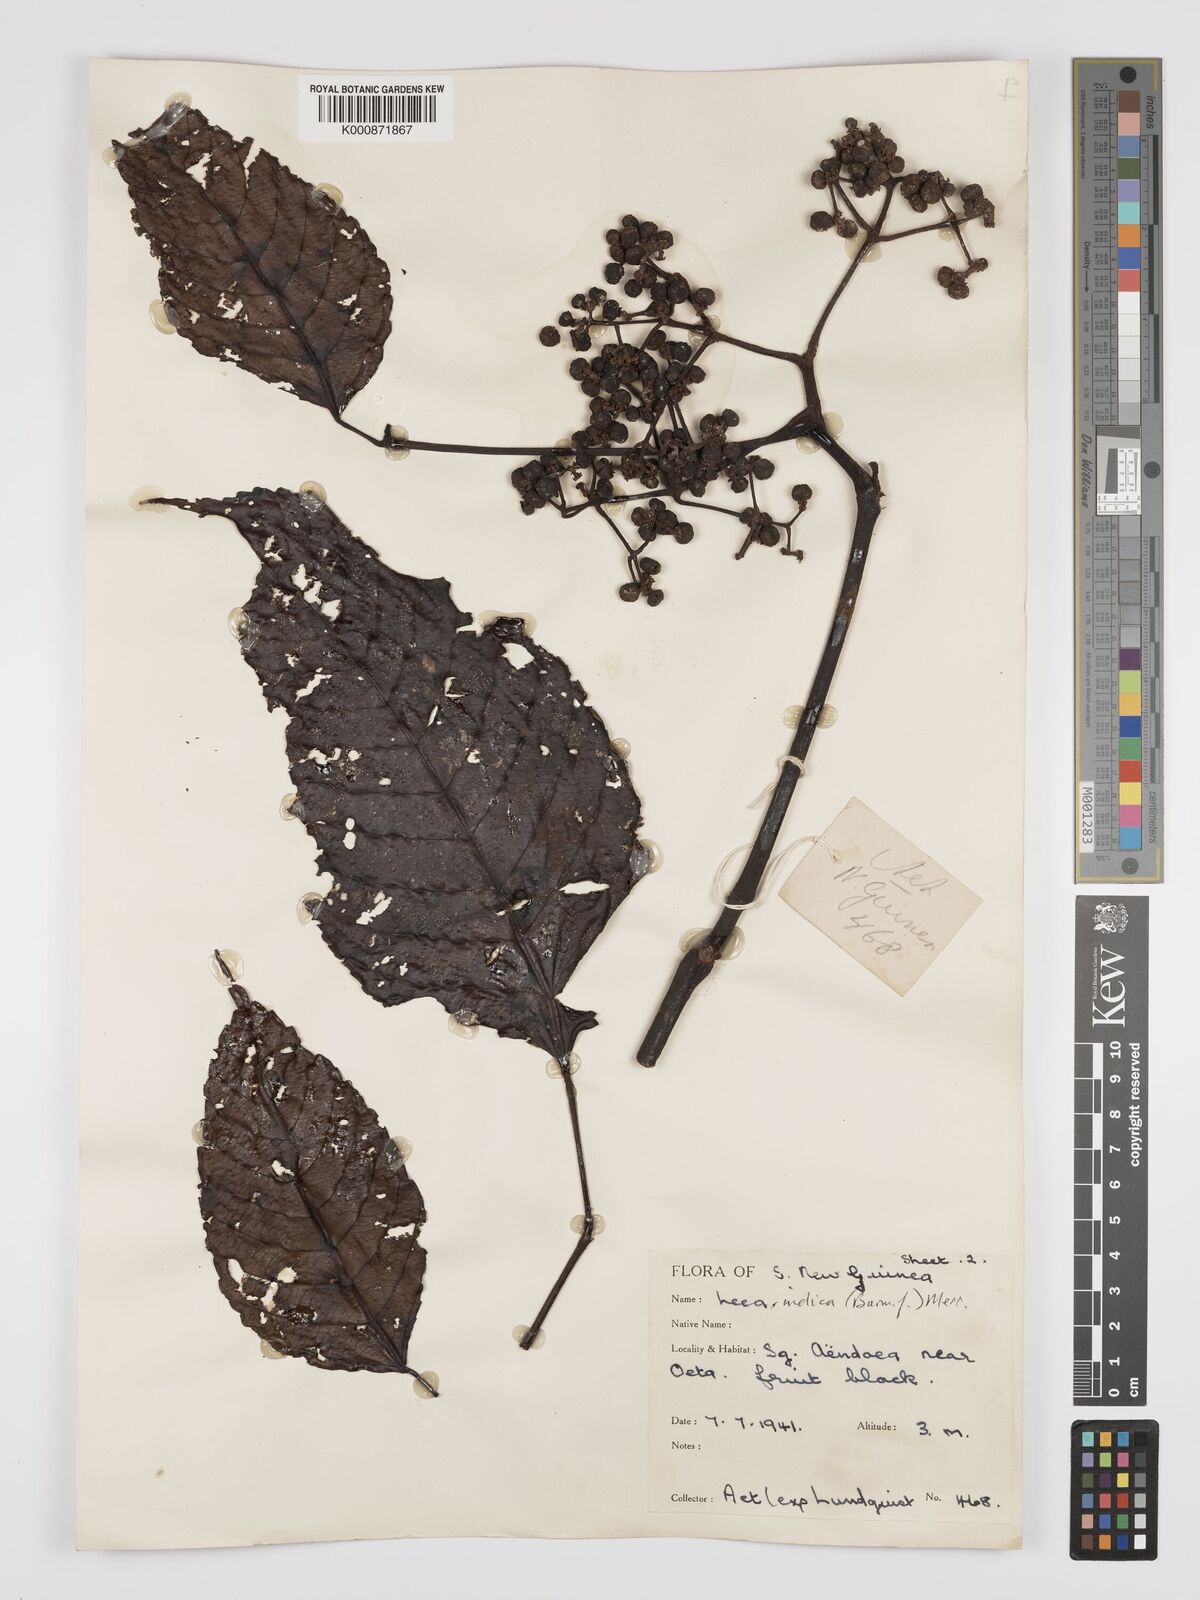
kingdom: Plantae
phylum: Tracheophyta
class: Magnoliopsida
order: Vitales
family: Vitaceae
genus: Leea
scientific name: Leea indica
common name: Bandicoot-berry
